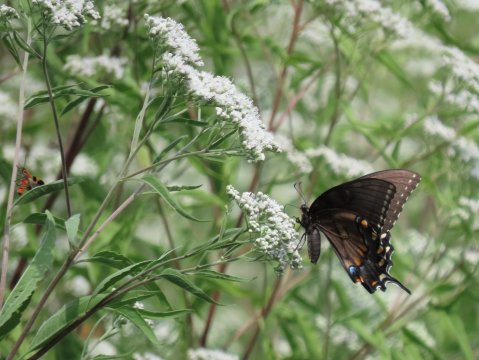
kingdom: Animalia
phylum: Arthropoda
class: Insecta
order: Lepidoptera
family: Papilionidae
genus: Pterourus
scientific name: Pterourus glaucus
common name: Eastern Tiger Swallowtail
